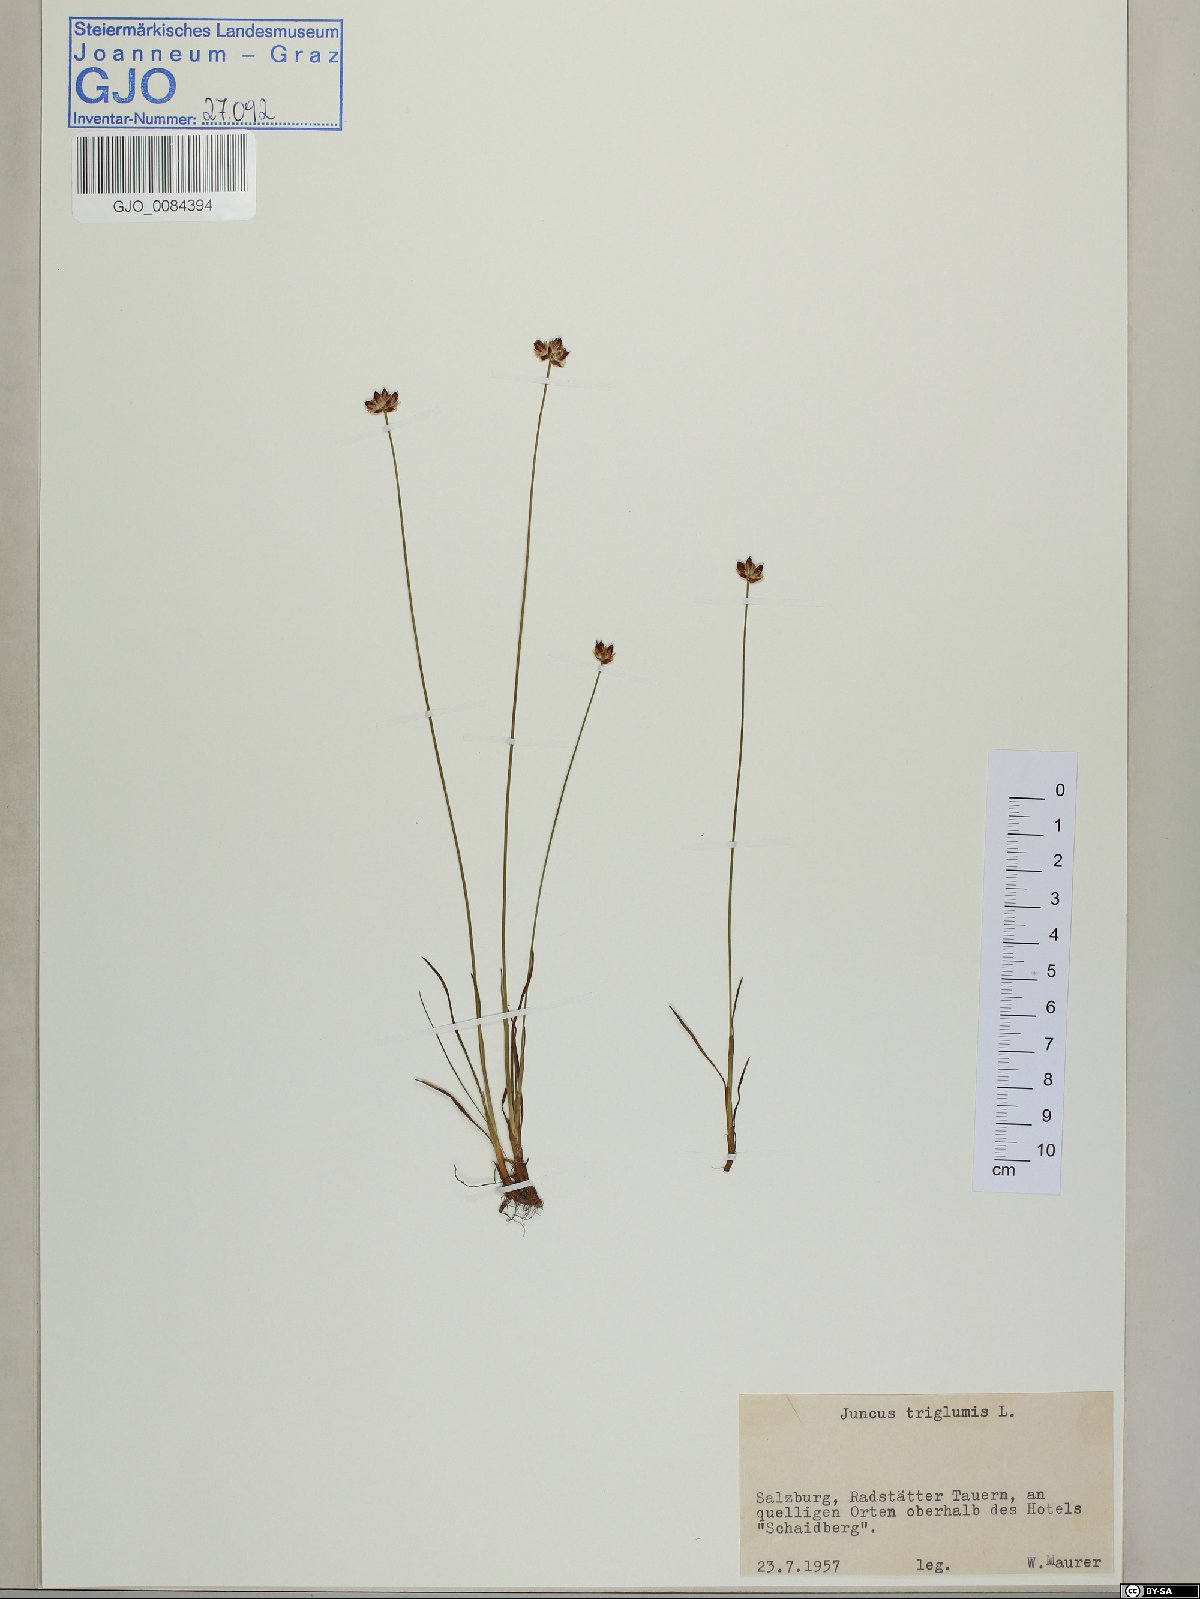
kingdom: Plantae
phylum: Tracheophyta
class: Liliopsida
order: Poales
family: Juncaceae
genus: Juncus
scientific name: Juncus triglumis
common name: Three-flowered rush
